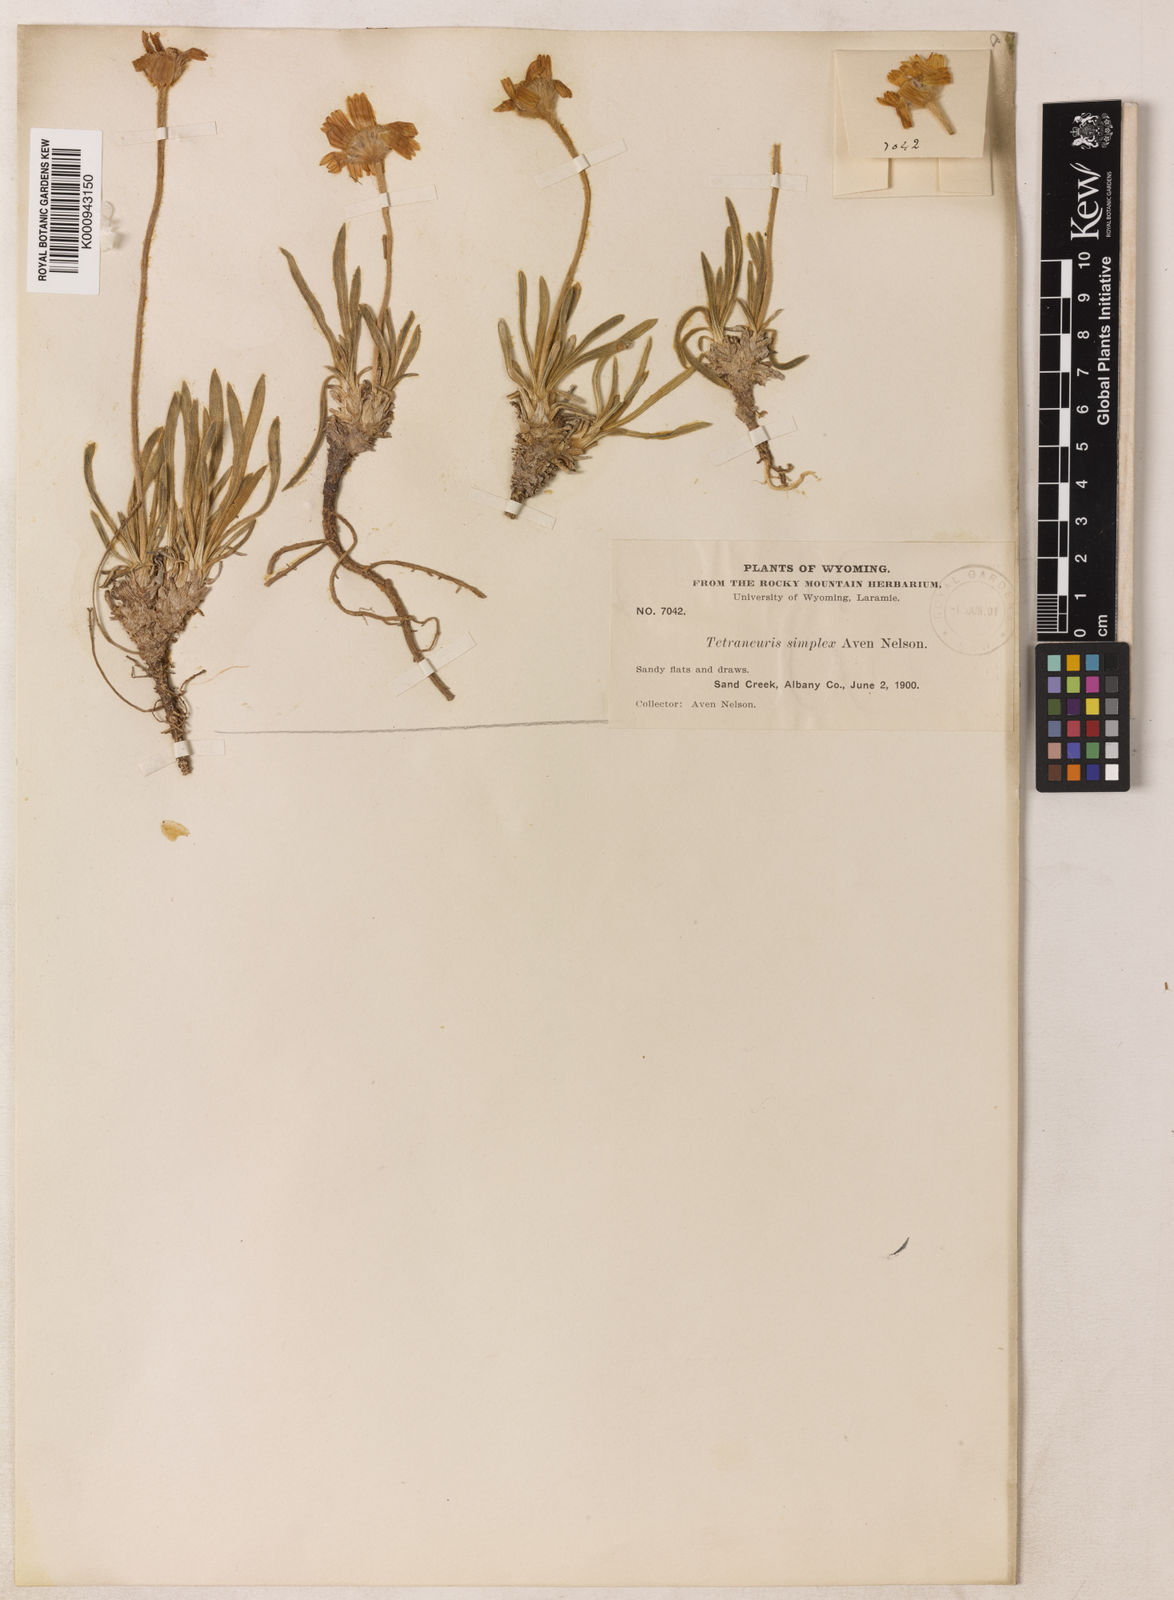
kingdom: Plantae
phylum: Tracheophyta
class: Magnoliopsida
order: Asterales
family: Asteraceae
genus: Tetraneuris
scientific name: Tetraneuris acaulis
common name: Butte marigold
